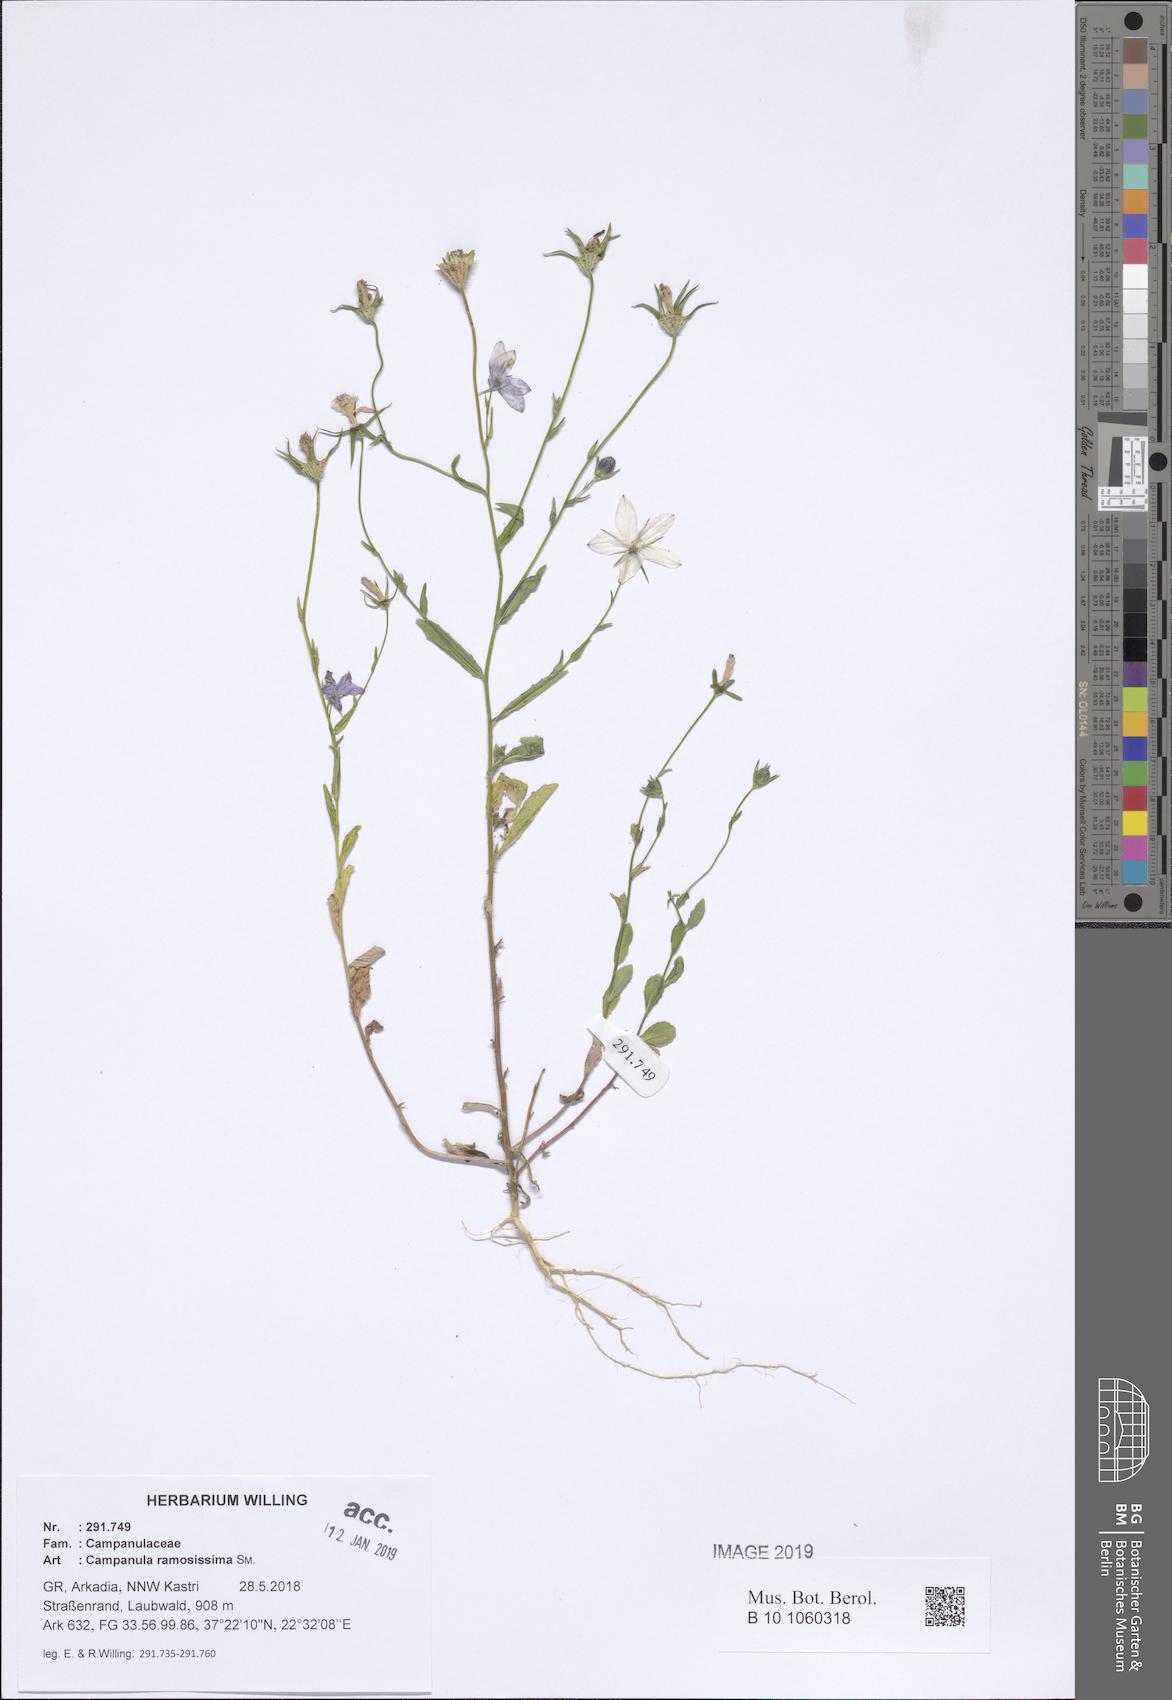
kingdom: Plantae
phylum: Tracheophyta
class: Magnoliopsida
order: Asterales
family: Campanulaceae
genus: Campanula
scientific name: Campanula ramosissima
